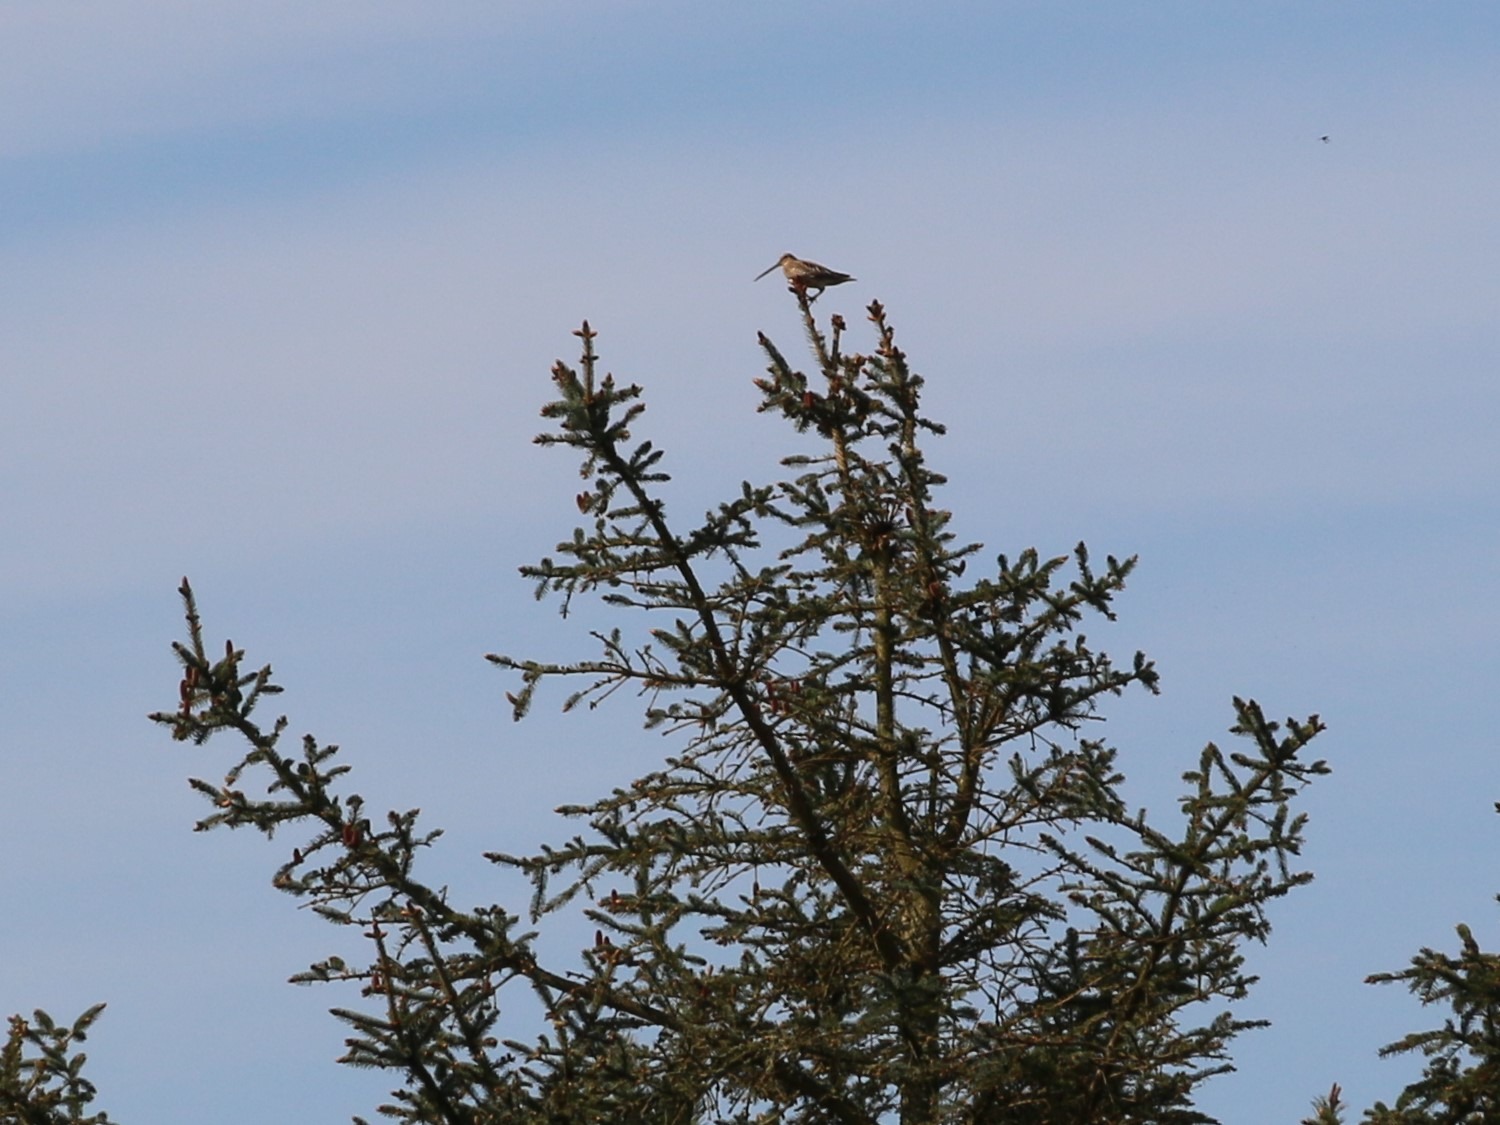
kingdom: Animalia
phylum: Chordata
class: Aves
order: Charadriiformes
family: Scolopacidae
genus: Gallinago
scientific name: Gallinago gallinago
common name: Dobbeltbekkasin
